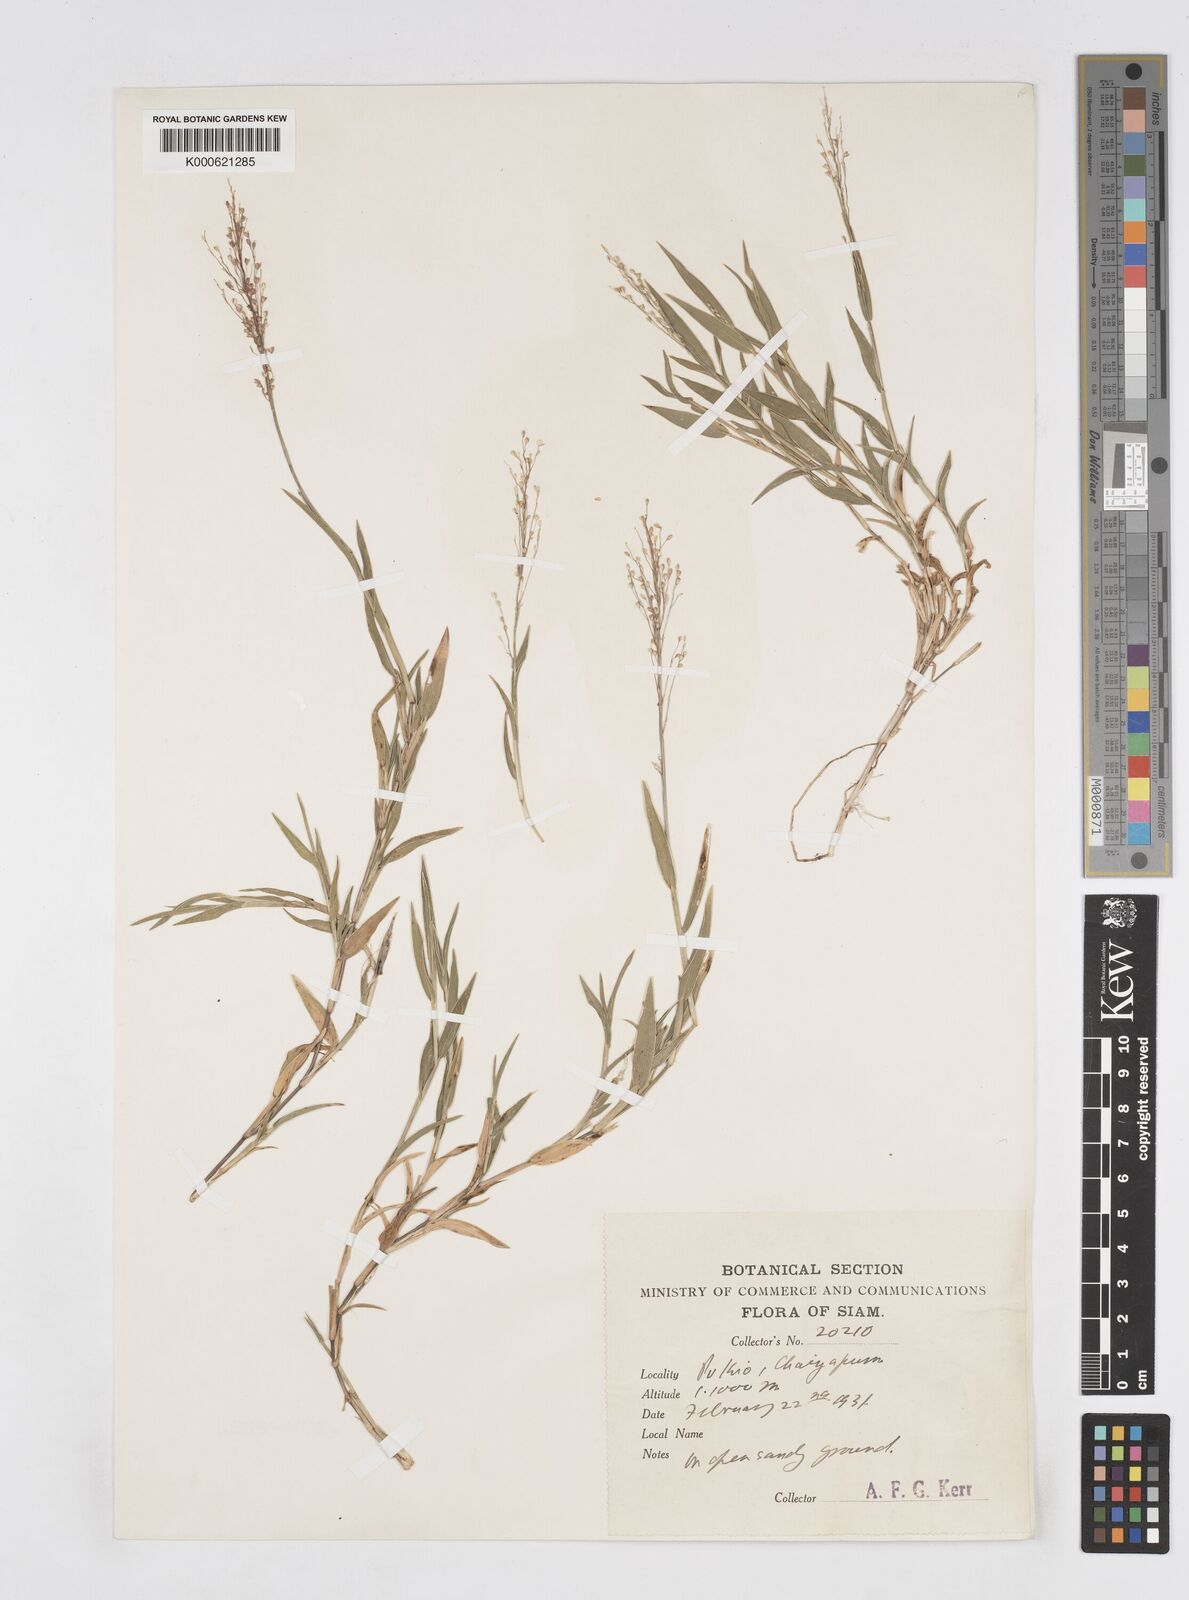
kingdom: Plantae
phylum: Tracheophyta
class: Liliopsida
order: Poales
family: Poaceae
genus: Isachne
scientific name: Isachne smitinandiana
